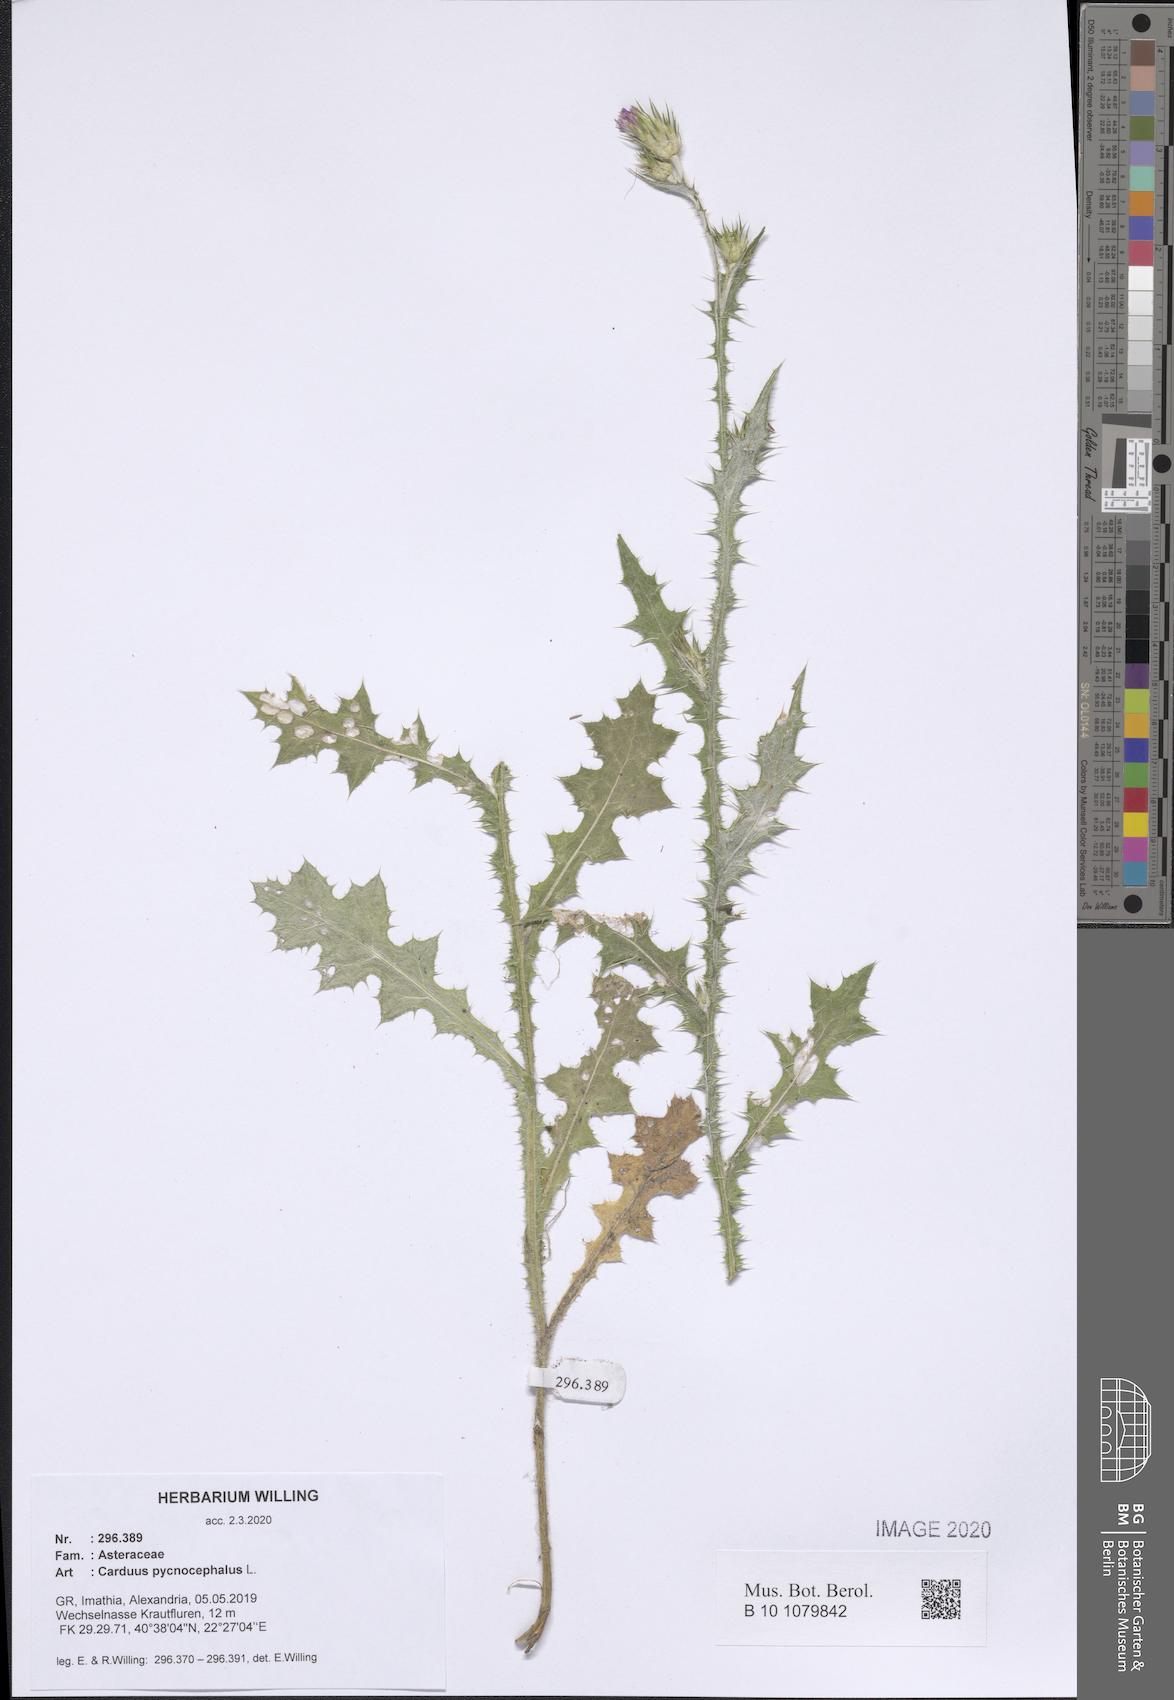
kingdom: Plantae
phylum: Tracheophyta
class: Magnoliopsida
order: Asterales
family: Asteraceae
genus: Carduus
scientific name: Carduus pycnocephalus
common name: Plymouth thistle
